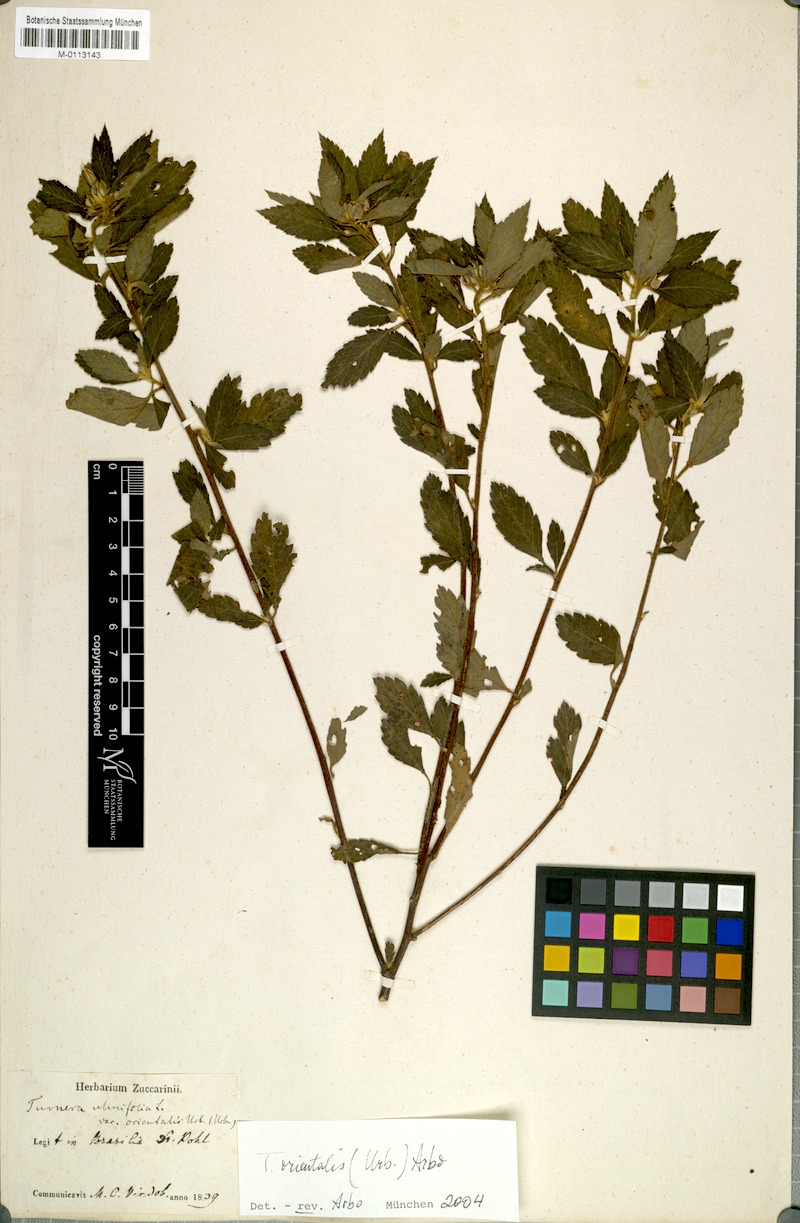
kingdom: Plantae
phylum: Tracheophyta
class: Magnoliopsida
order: Malpighiales
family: Turneraceae
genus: Turnera
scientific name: Turnera orientalis
